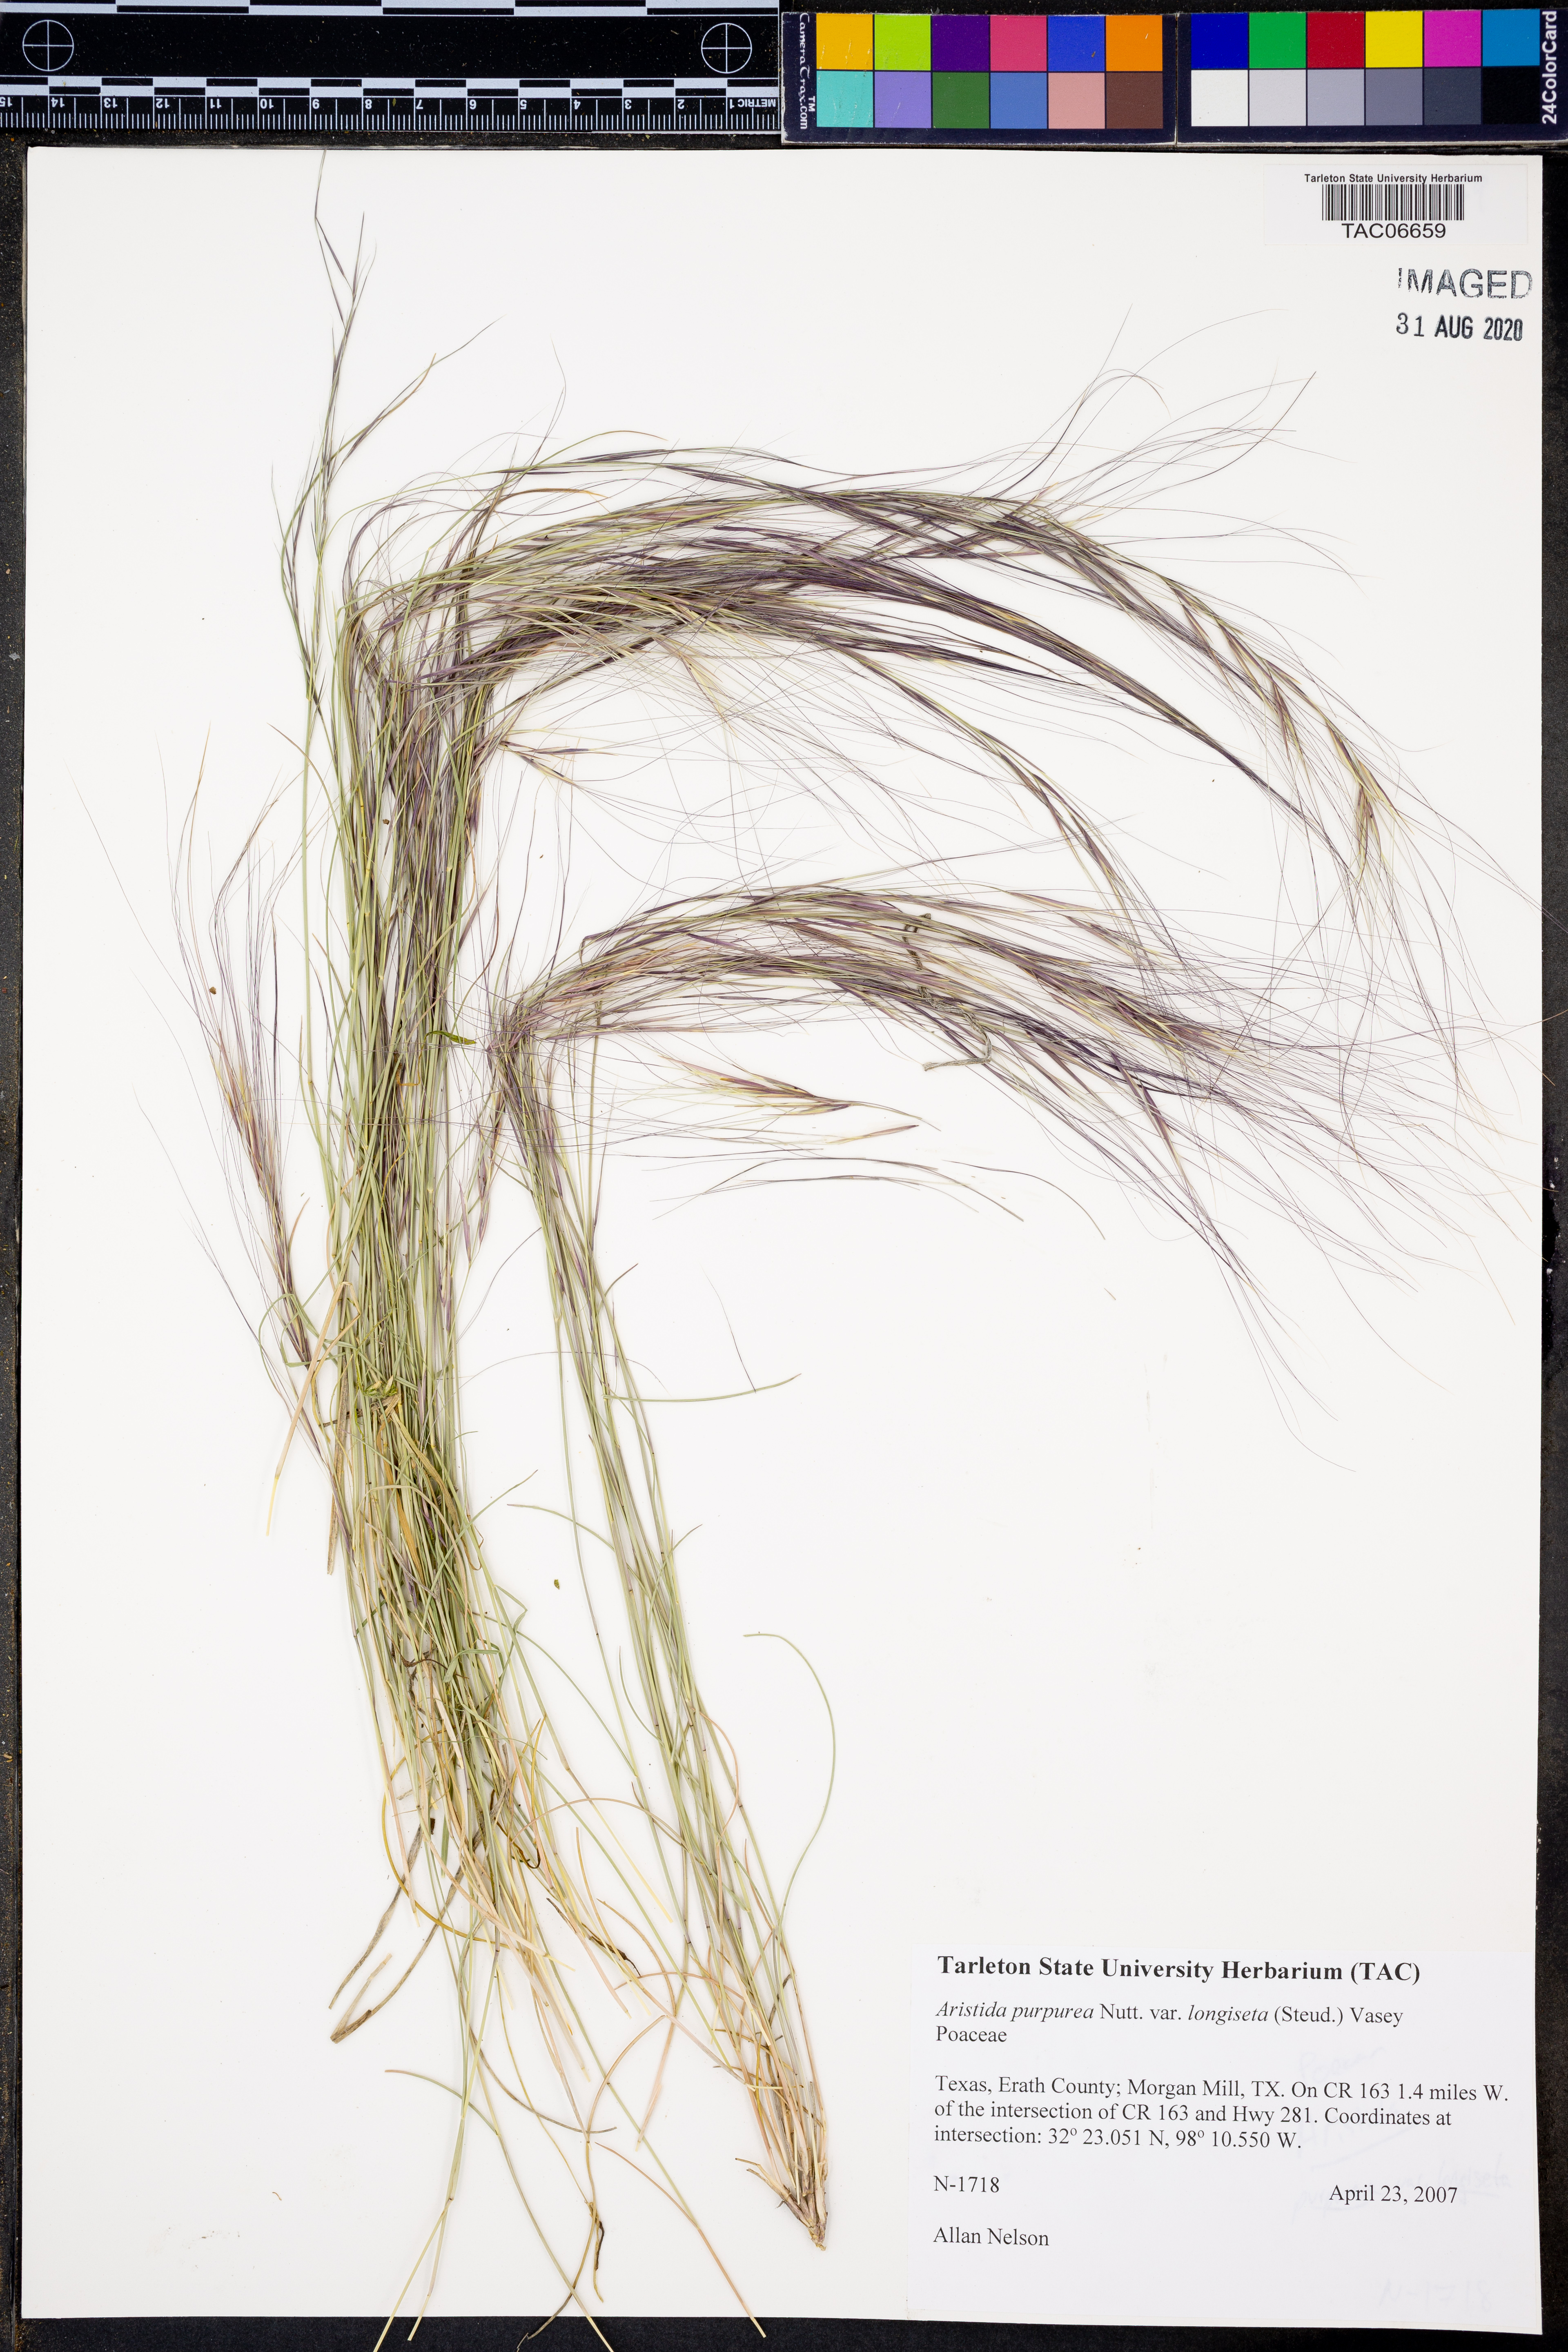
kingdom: Plantae
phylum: Tracheophyta
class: Liliopsida
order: Poales
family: Poaceae
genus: Aristida
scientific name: Aristida longiseta
